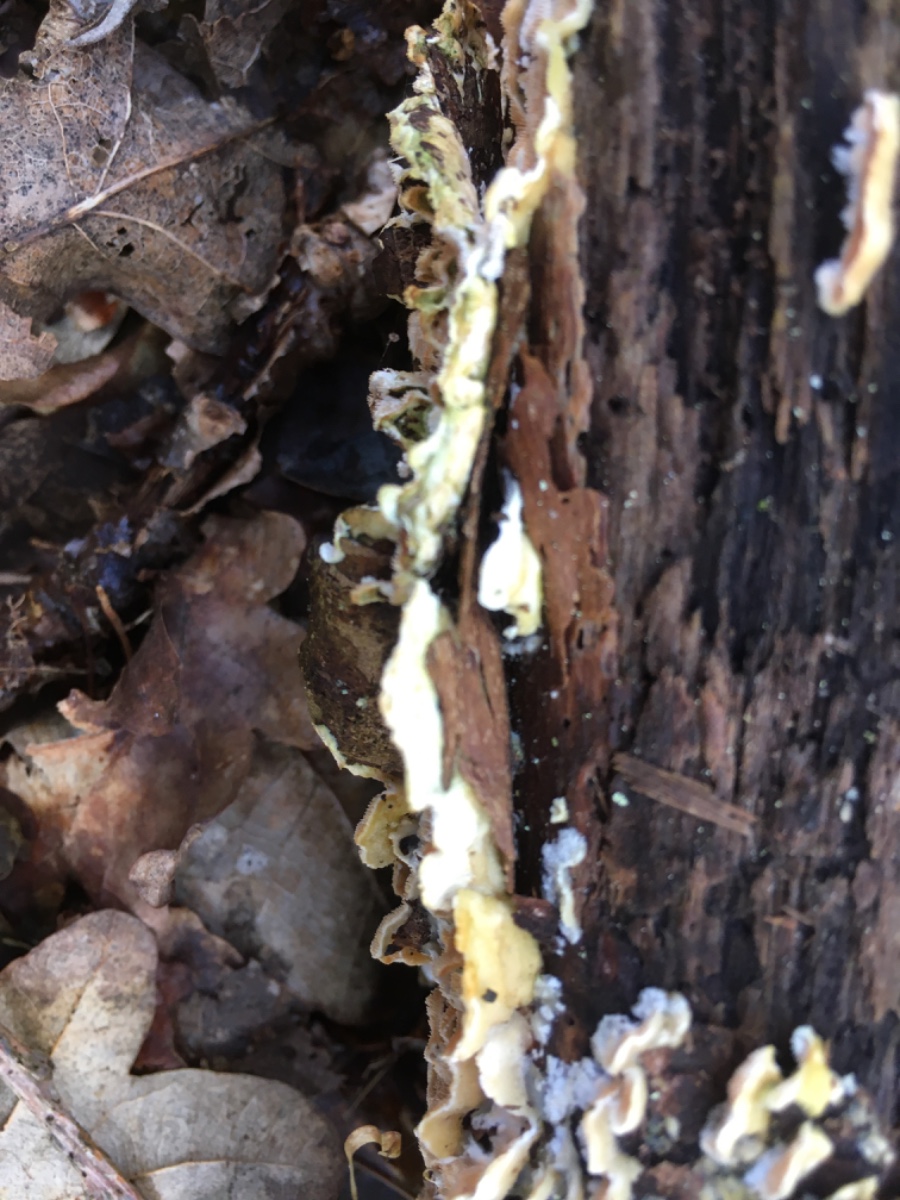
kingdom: Fungi
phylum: Basidiomycota
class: Agaricomycetes
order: Polyporales
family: Steccherinaceae
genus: Steccherinum
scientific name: Steccherinum ochraceum
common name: almindelig skønpig
